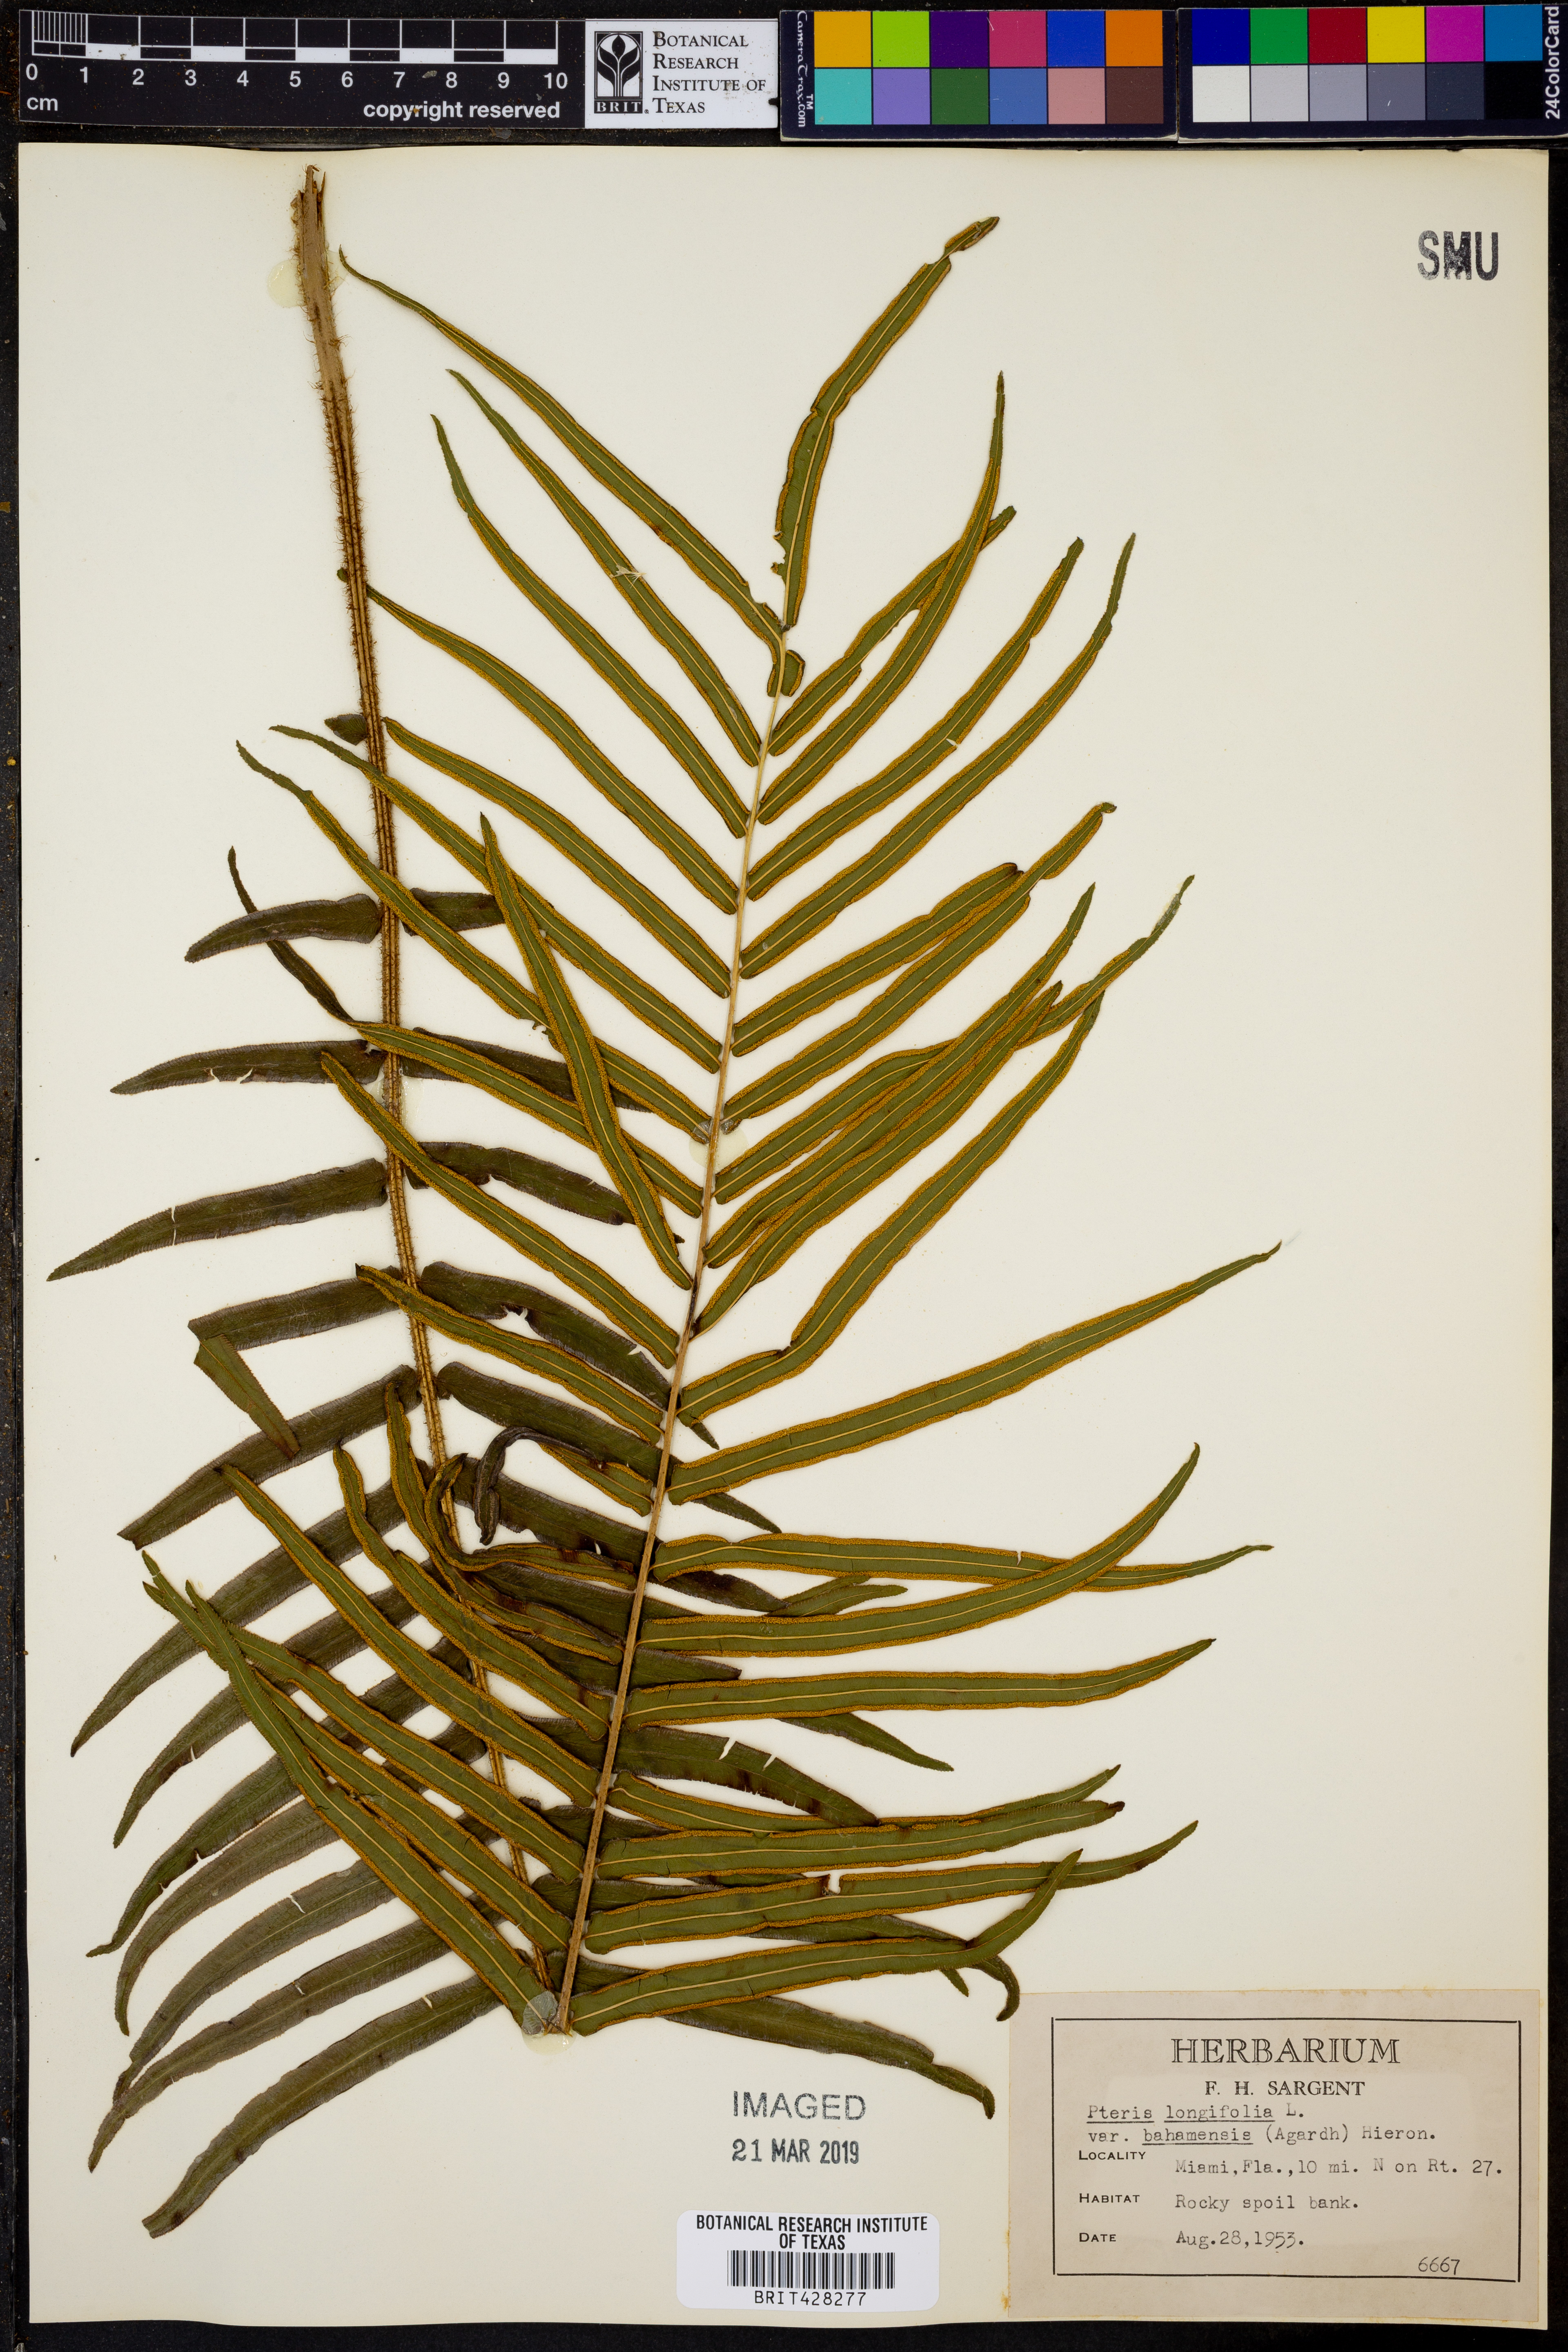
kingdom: Plantae
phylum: Tracheophyta
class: Polypodiopsida
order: Polypodiales
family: Pteridaceae
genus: Pteris
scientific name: Pteris bahamensis
